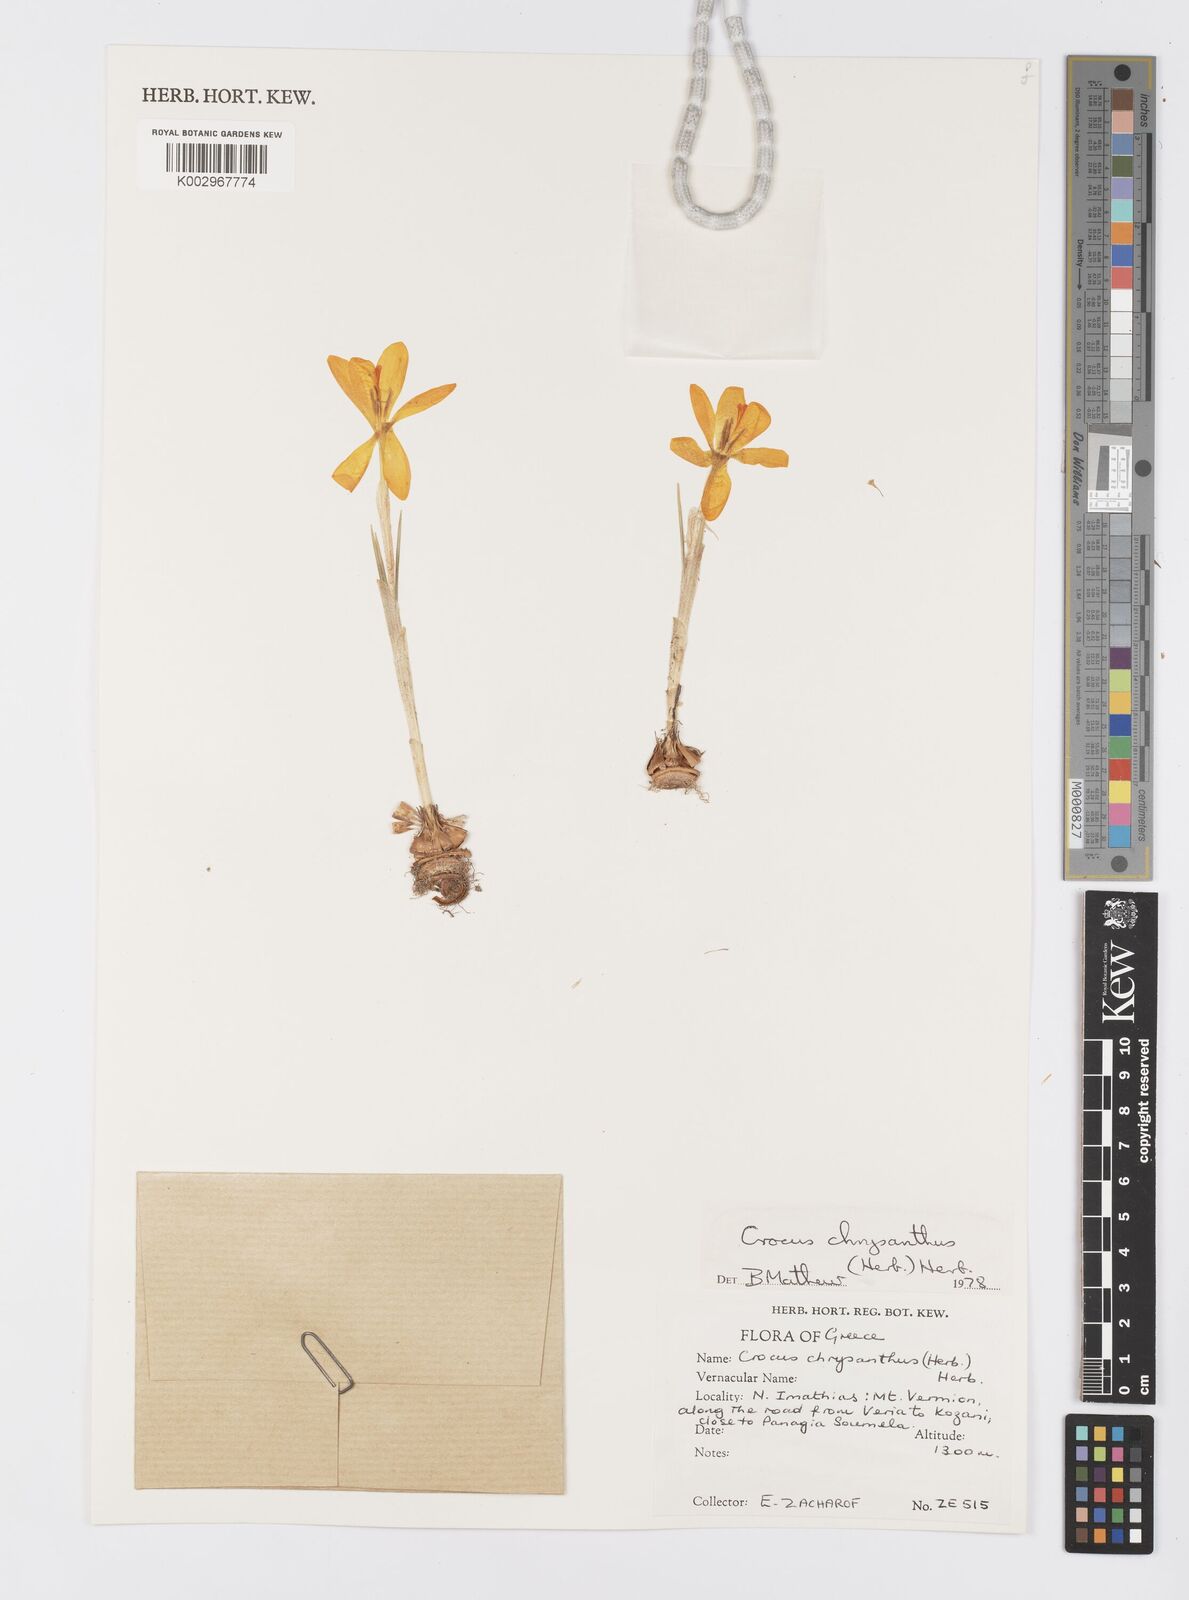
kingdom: Plantae
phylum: Tracheophyta
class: Liliopsida
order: Asparagales
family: Iridaceae
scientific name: Iridaceae
